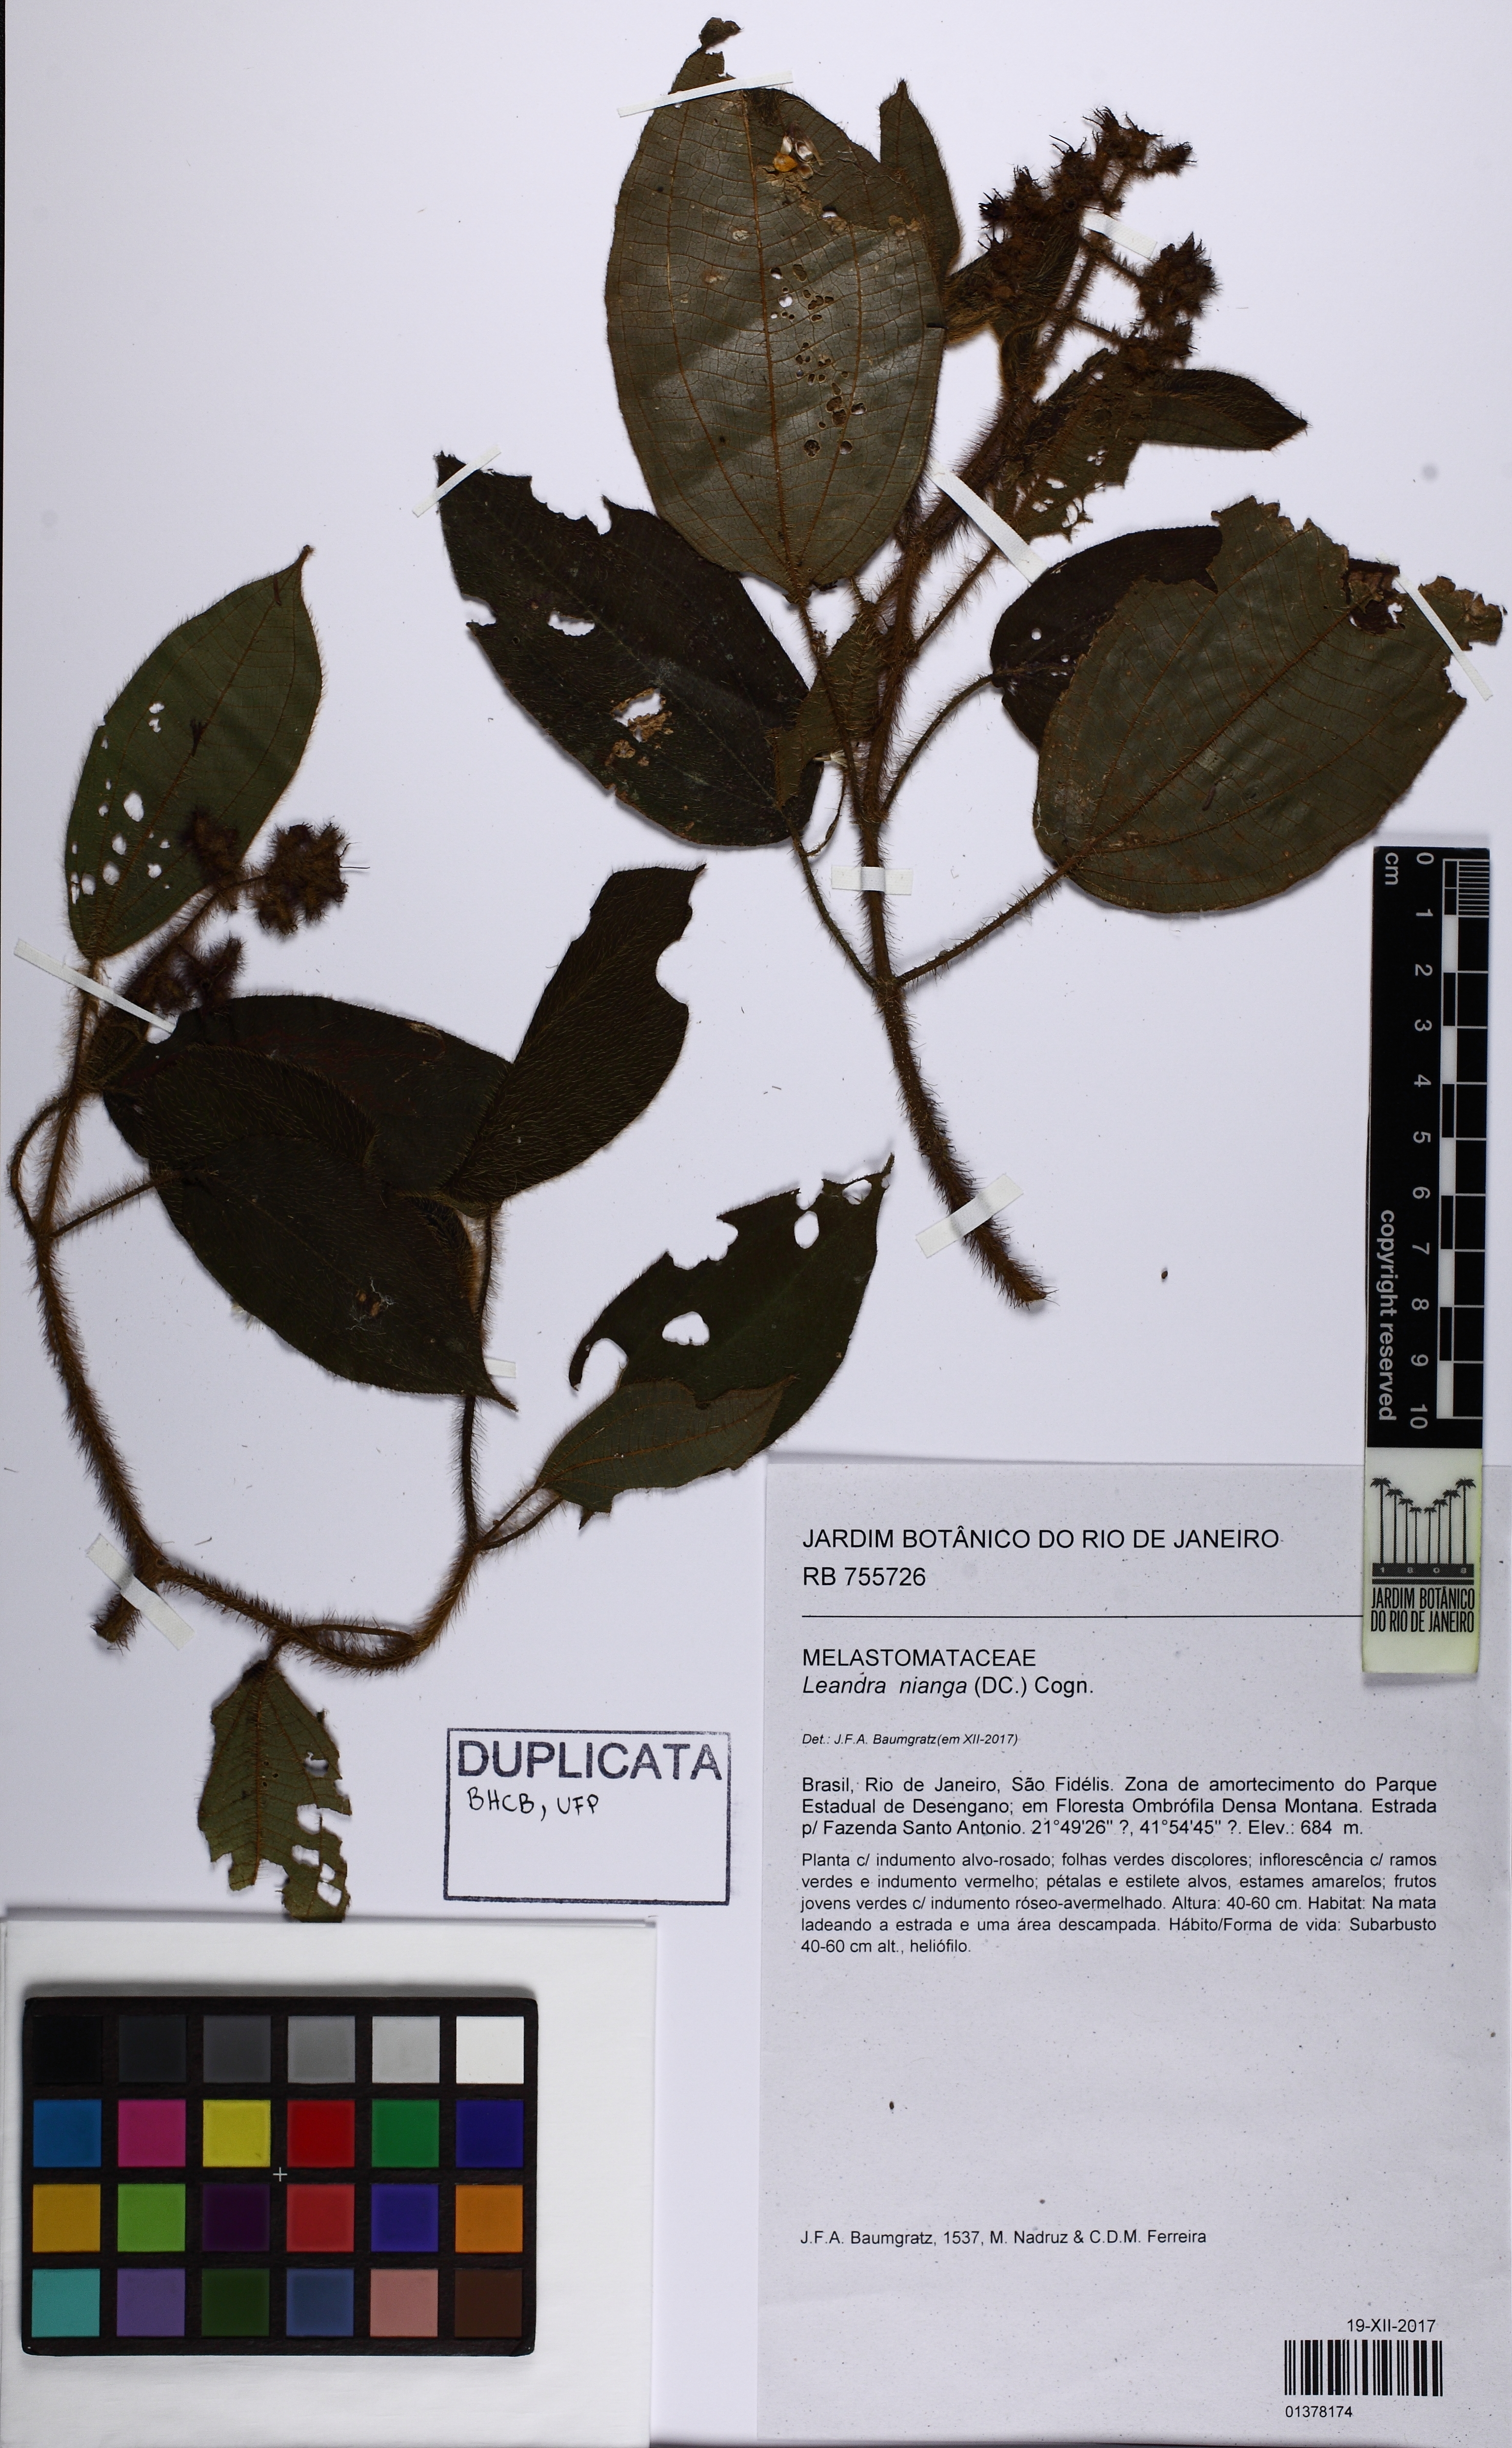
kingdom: Plantae
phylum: Tracheophyta
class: Magnoliopsida
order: Myrtales
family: Melastomataceae
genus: Miconia
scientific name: Miconia nianga
